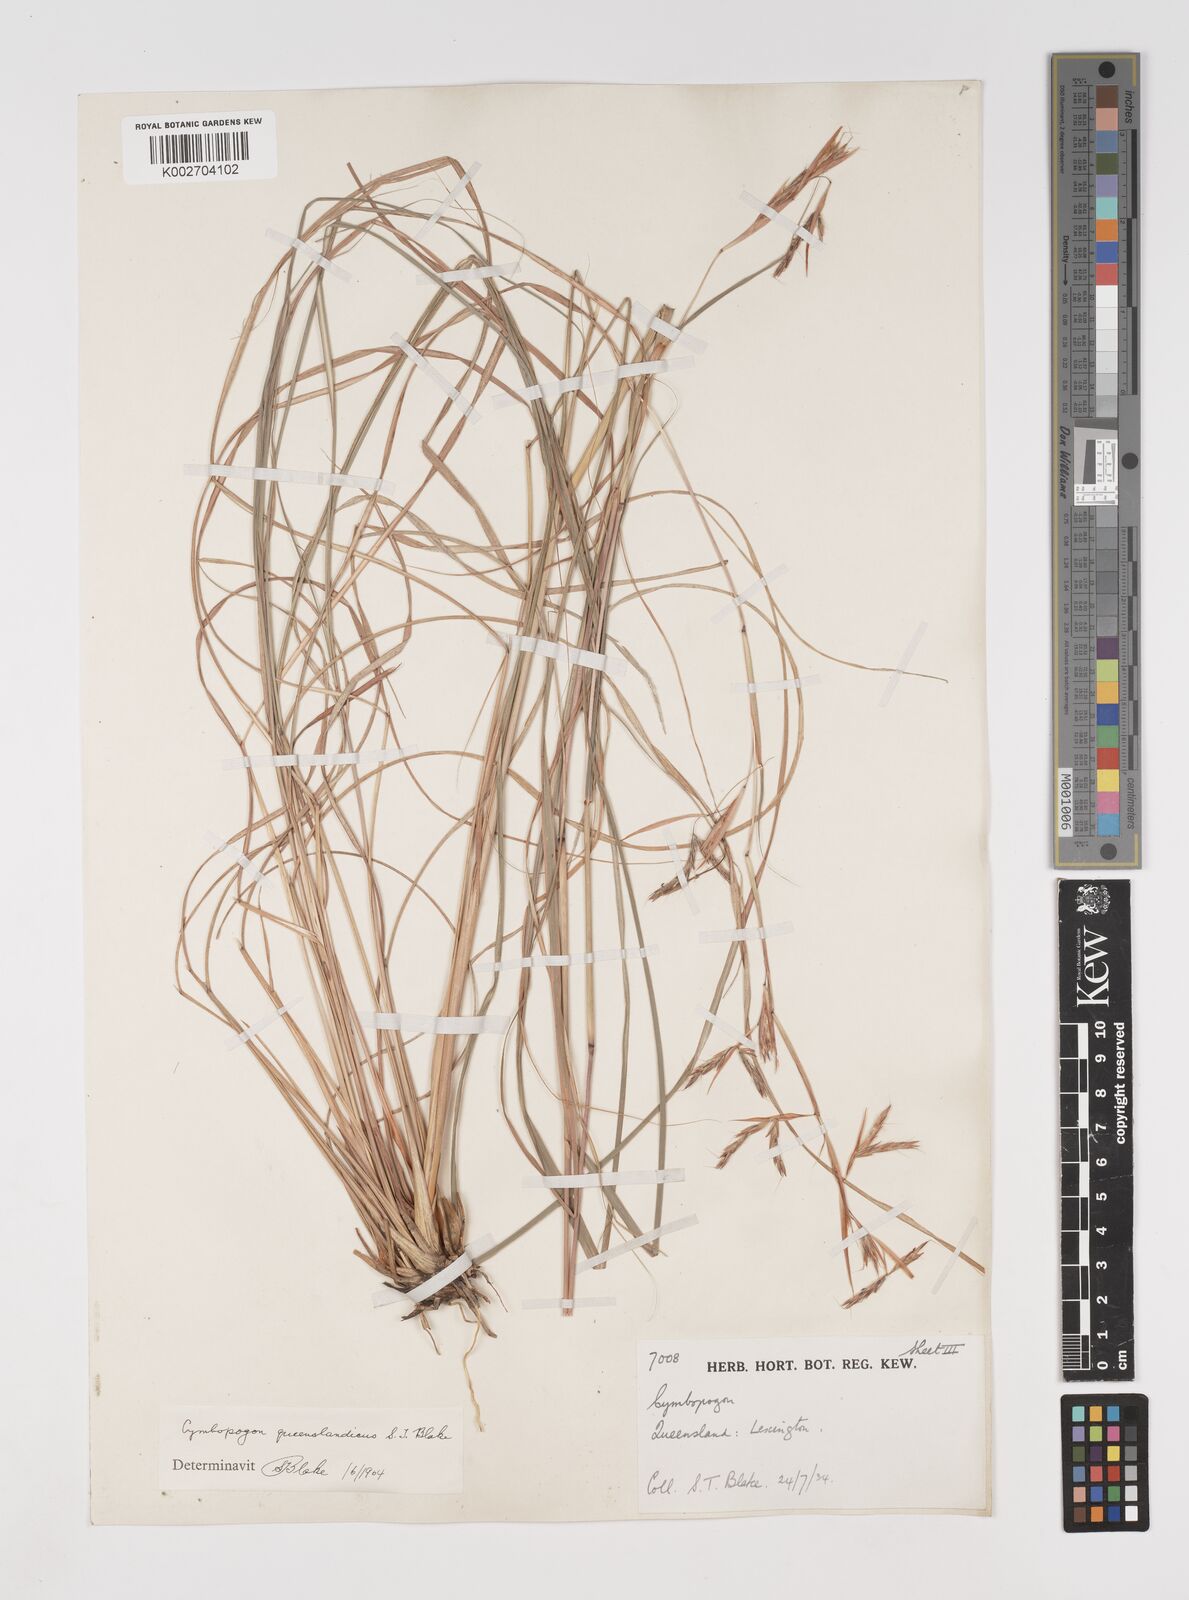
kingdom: Plantae
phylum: Tracheophyta
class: Liliopsida
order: Poales
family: Poaceae
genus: Cymbopogon
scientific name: Cymbopogon queenslandicus
